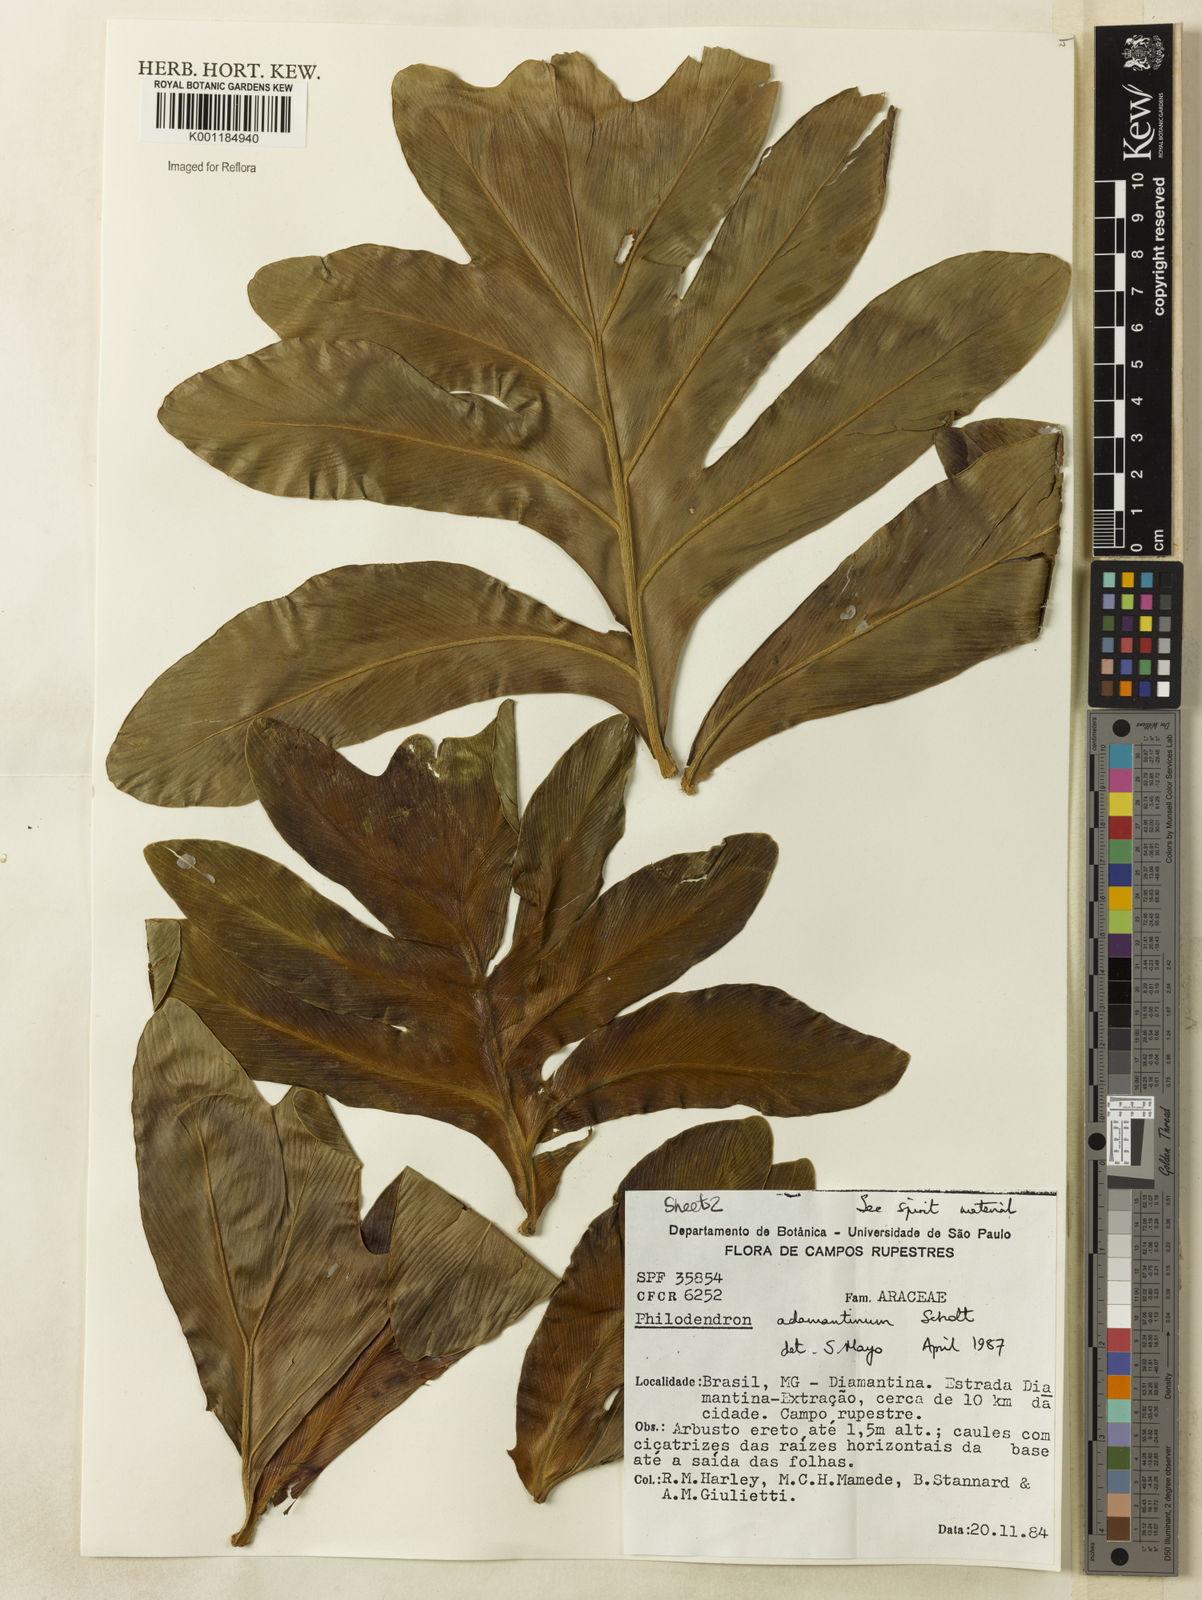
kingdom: Plantae
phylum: Tracheophyta
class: Liliopsida
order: Alismatales
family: Araceae
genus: Thaumatophyllum
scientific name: Thaumatophyllum adamantinum
